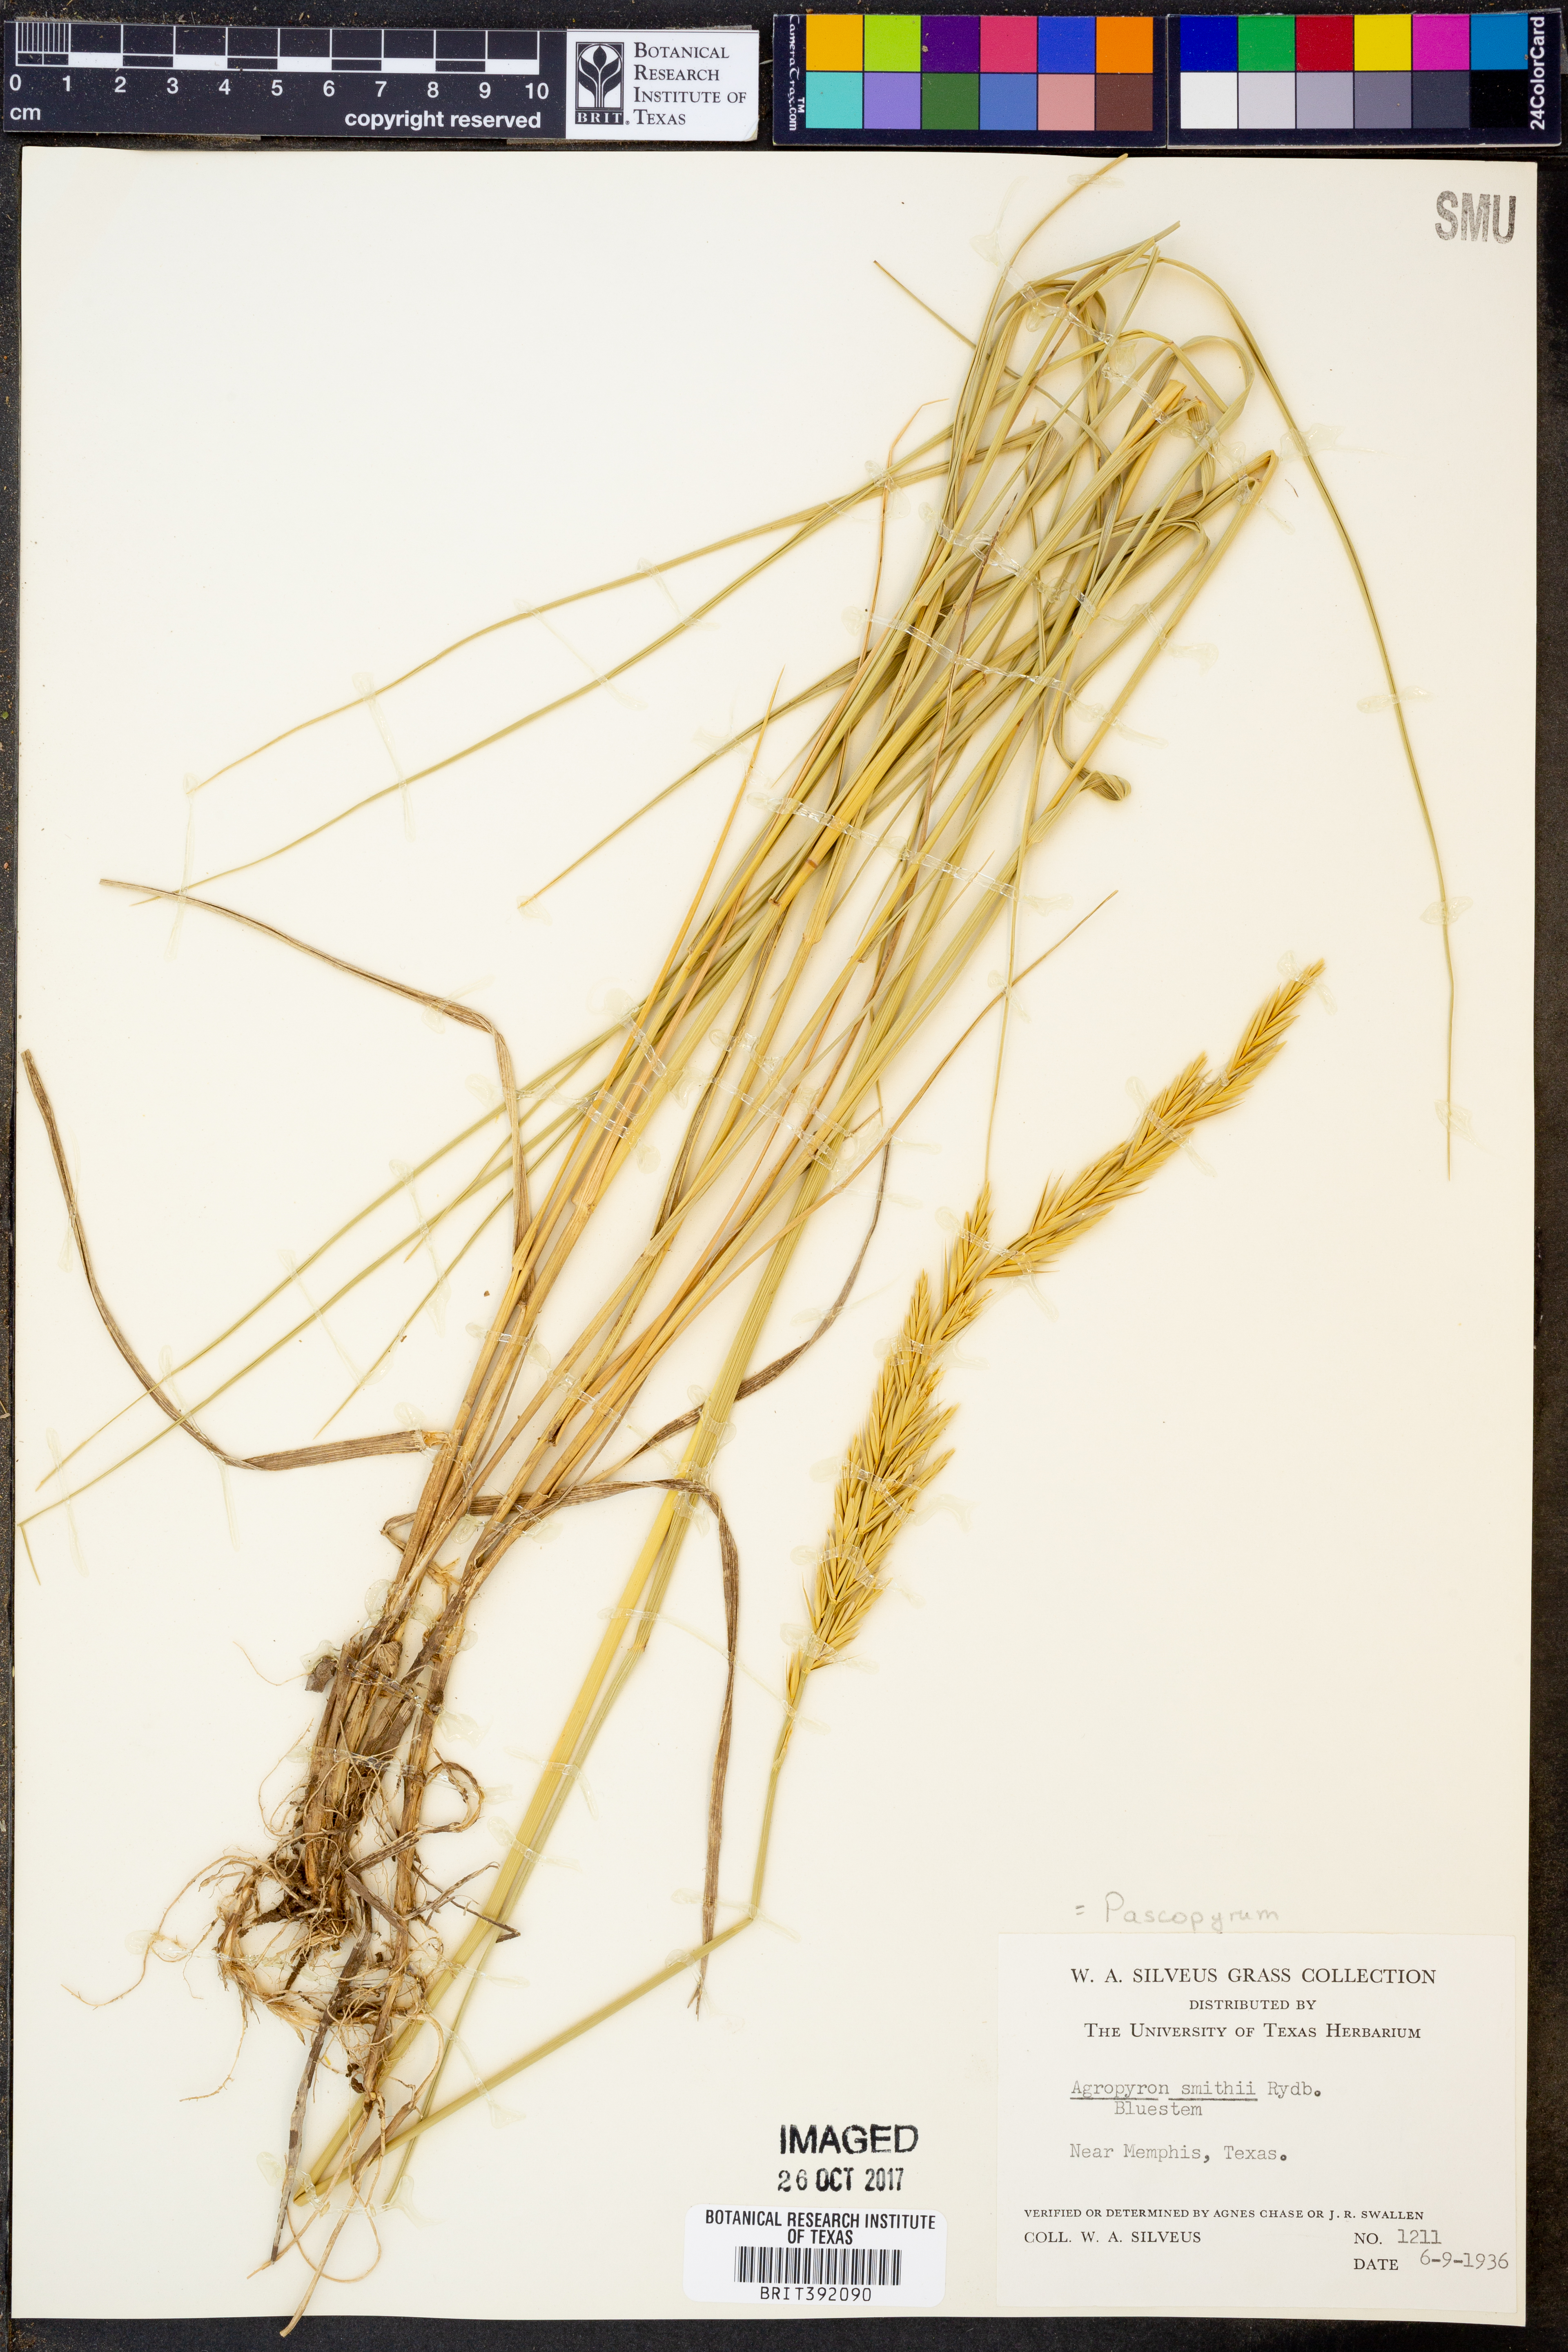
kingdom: Plantae
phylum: Tracheophyta
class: Liliopsida
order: Poales
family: Poaceae
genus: Elymus
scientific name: Elymus smithii
